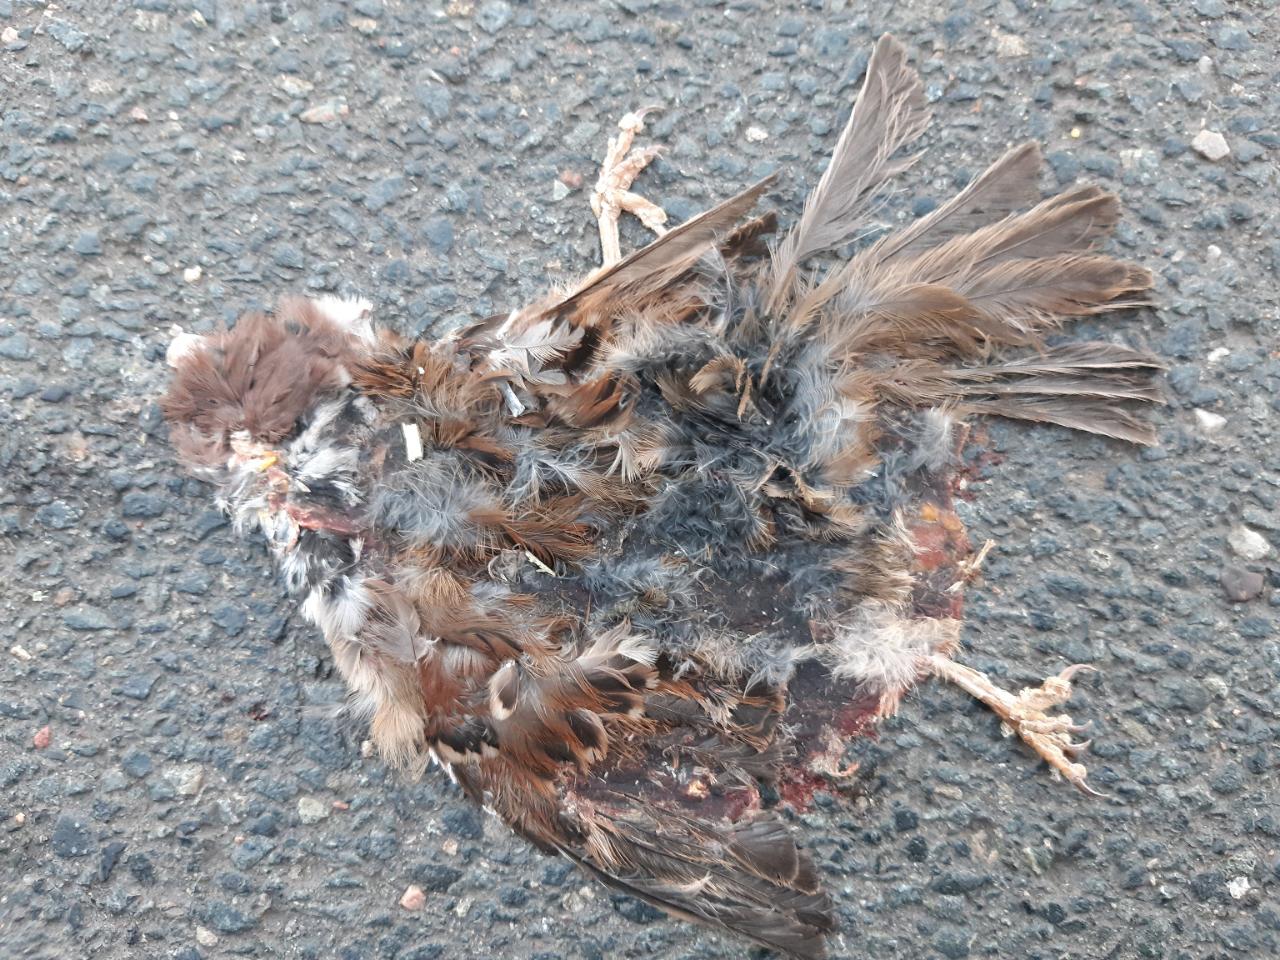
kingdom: Animalia
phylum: Chordata
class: Aves
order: Passeriformes
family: Passeridae
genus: Passer
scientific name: Passer montanus
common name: Eurasian tree sparrow
